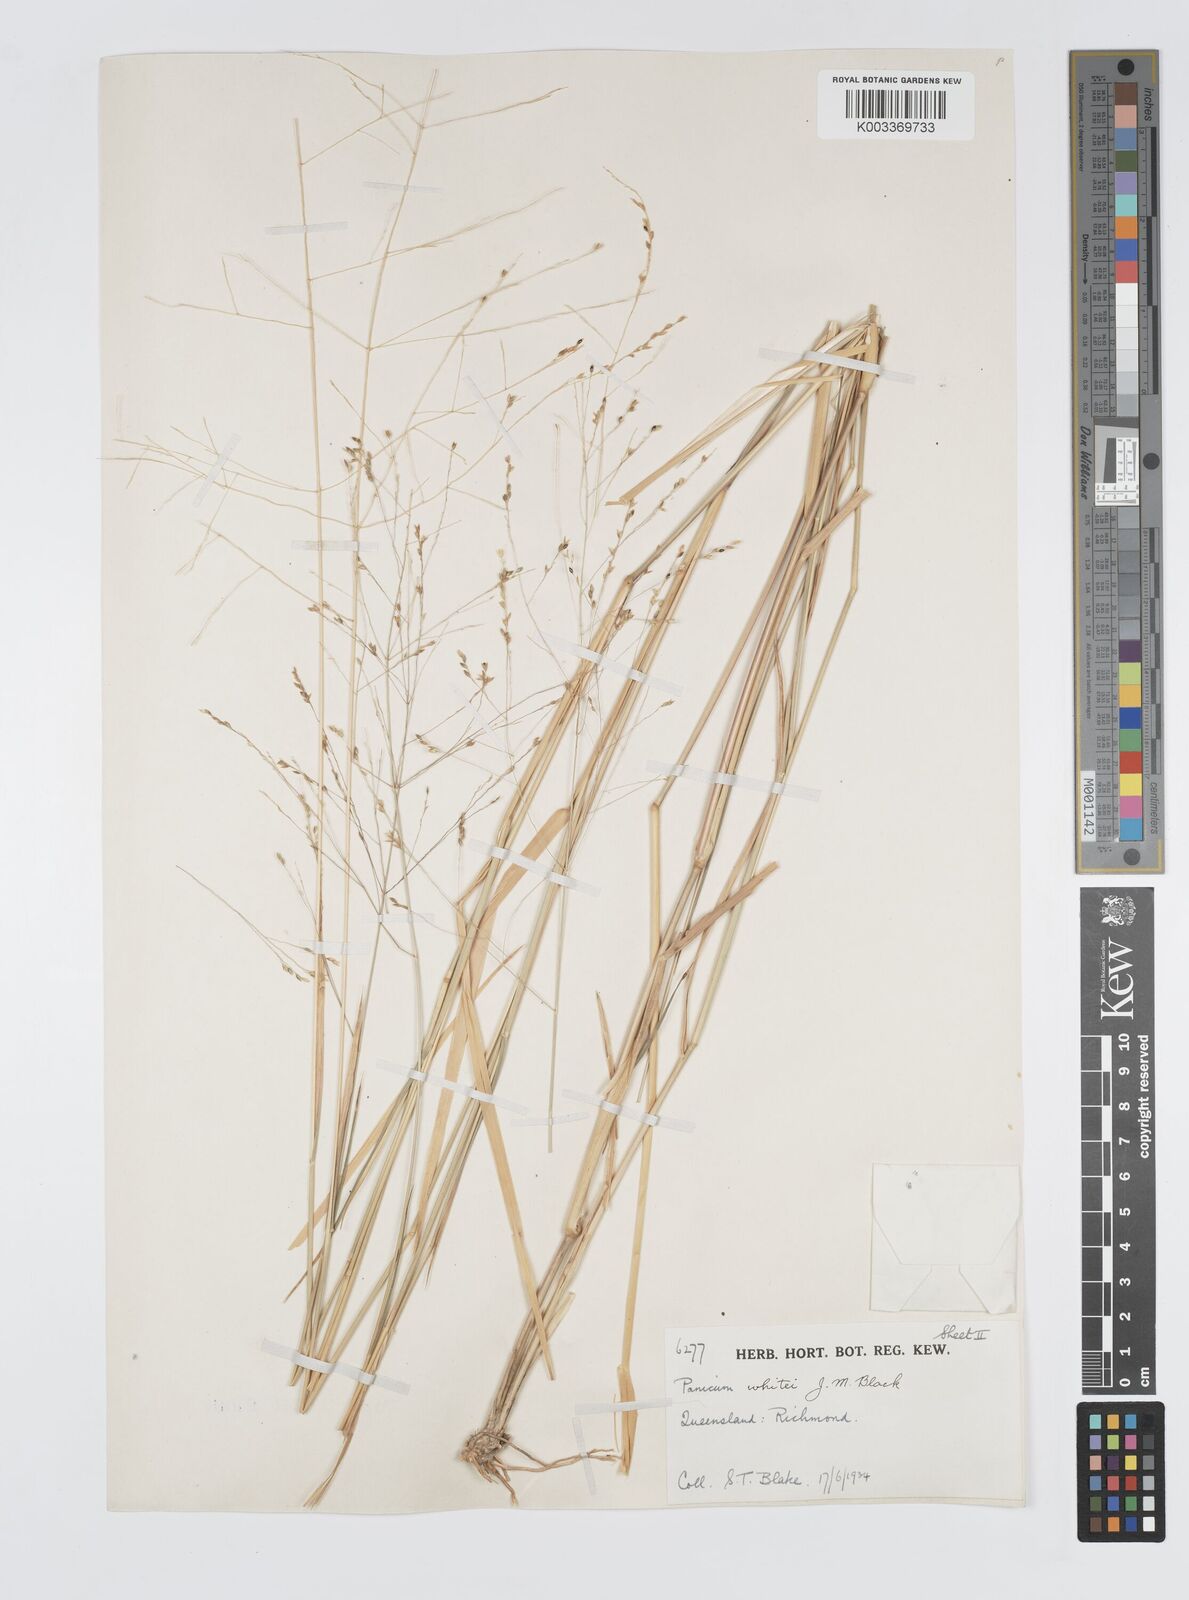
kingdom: Plantae
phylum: Tracheophyta
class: Liliopsida
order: Poales
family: Poaceae
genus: Panicum
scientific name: Panicum laevinode
